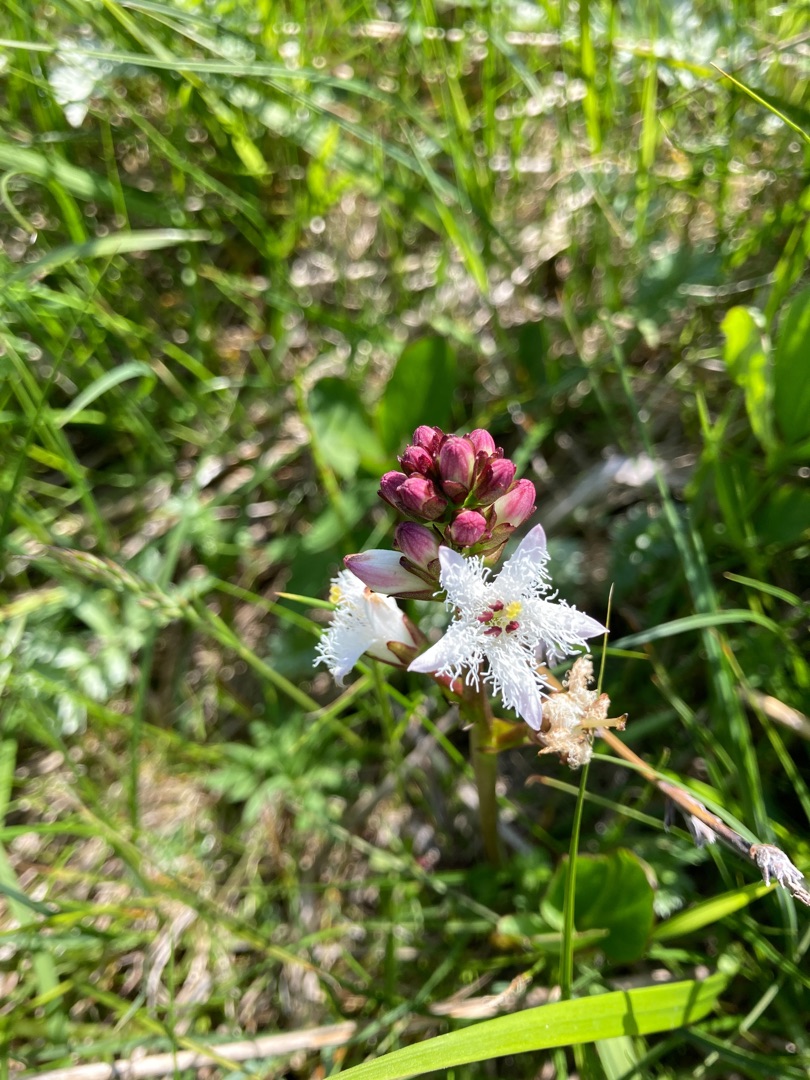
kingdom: Plantae
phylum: Tracheophyta
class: Magnoliopsida
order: Asterales
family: Menyanthaceae
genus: Menyanthes
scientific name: Menyanthes trifoliata
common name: Bukkeblad
